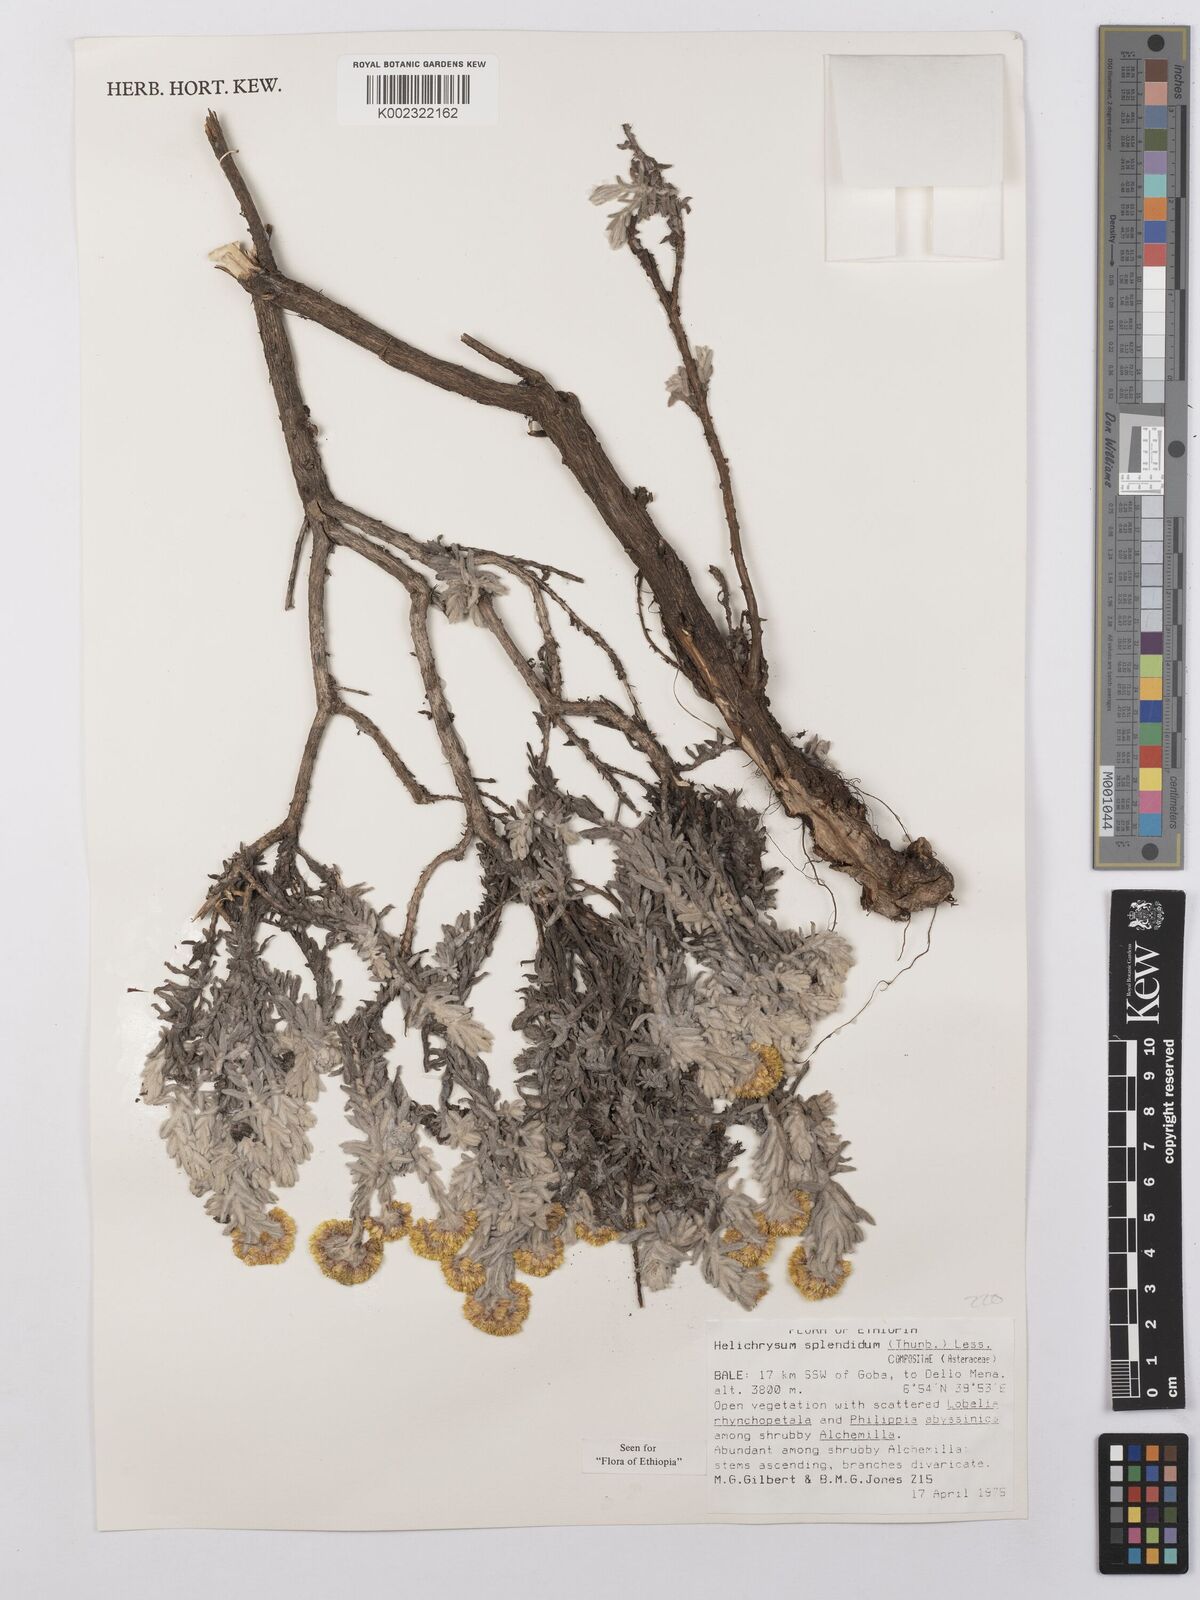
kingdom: Plantae
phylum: Tracheophyta
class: Magnoliopsida
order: Asterales
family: Asteraceae
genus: Helichrysum
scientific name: Helichrysum splendidum
